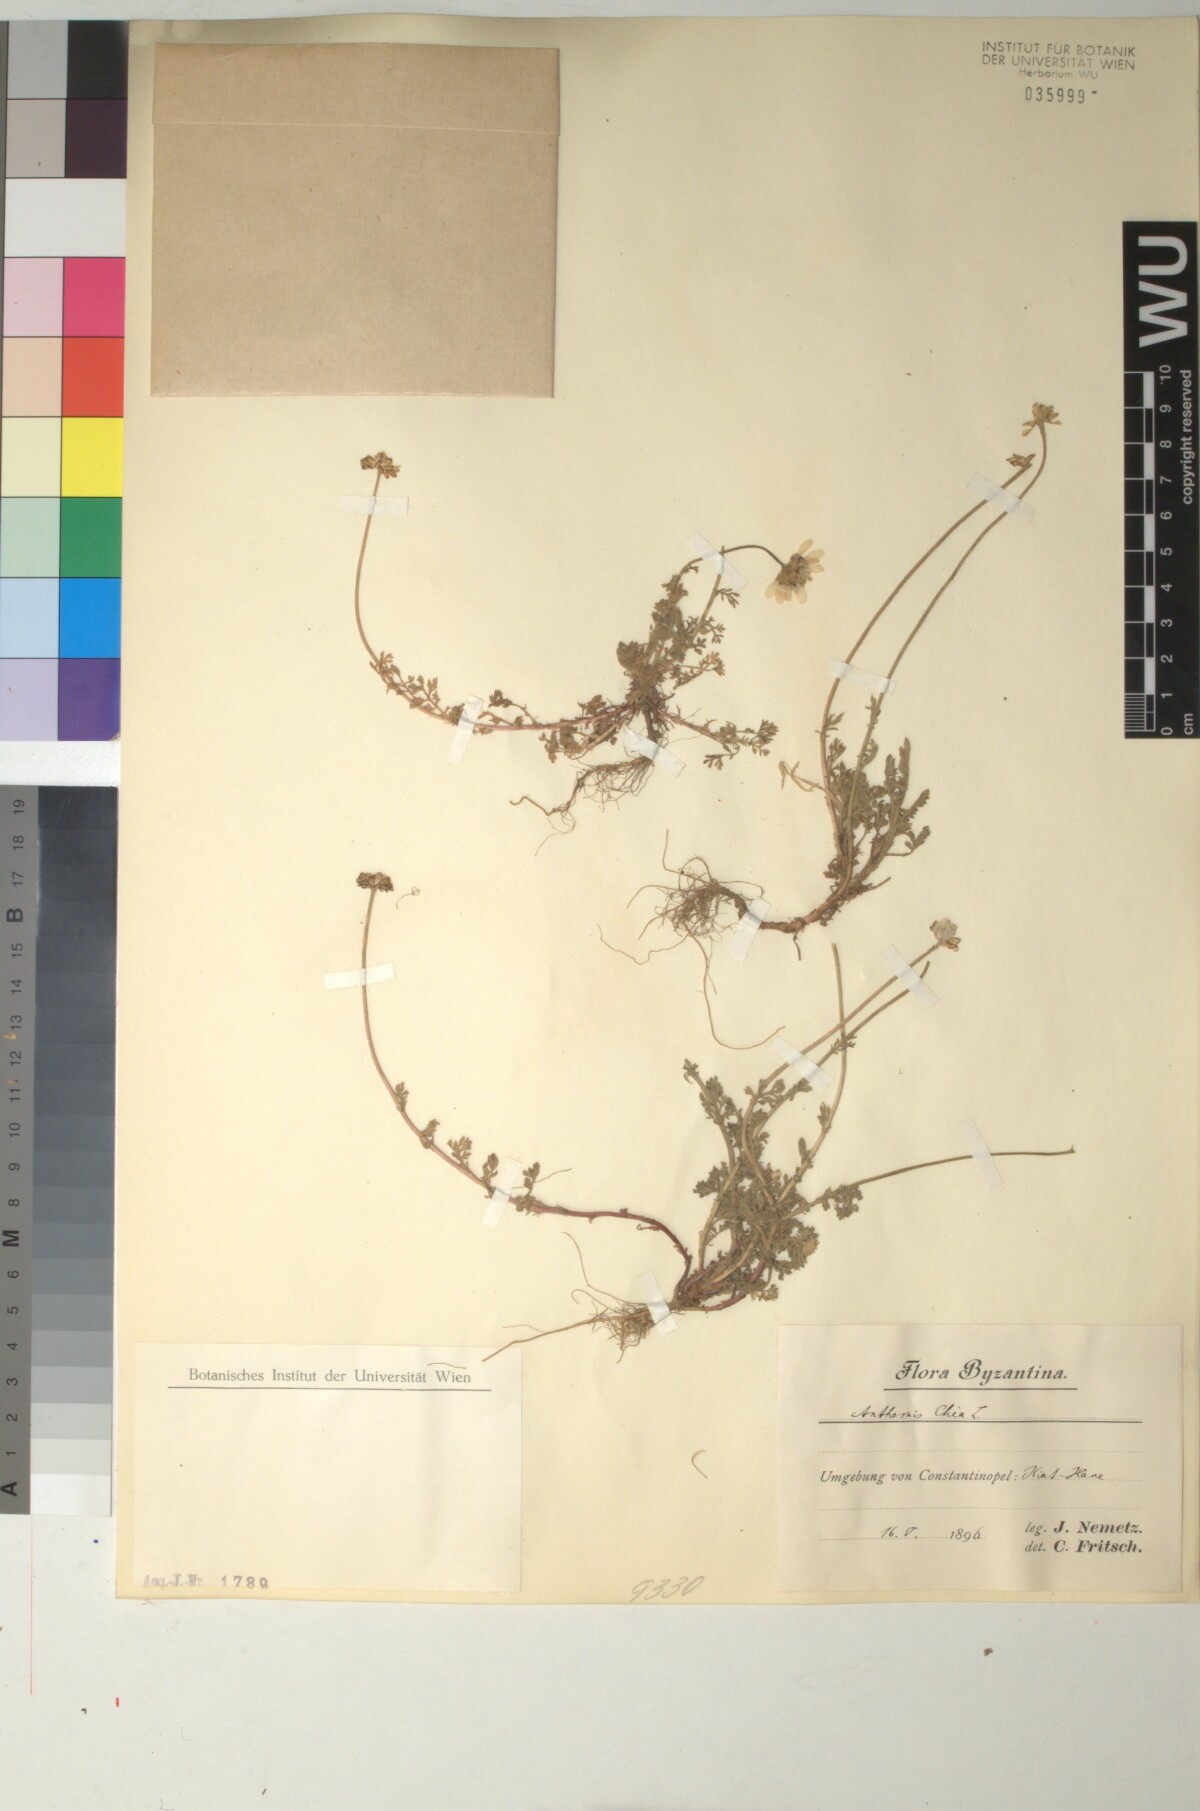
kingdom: Plantae
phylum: Tracheophyta
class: Magnoliopsida
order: Asterales
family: Asteraceae
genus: Anthemis
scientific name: Anthemis chia
